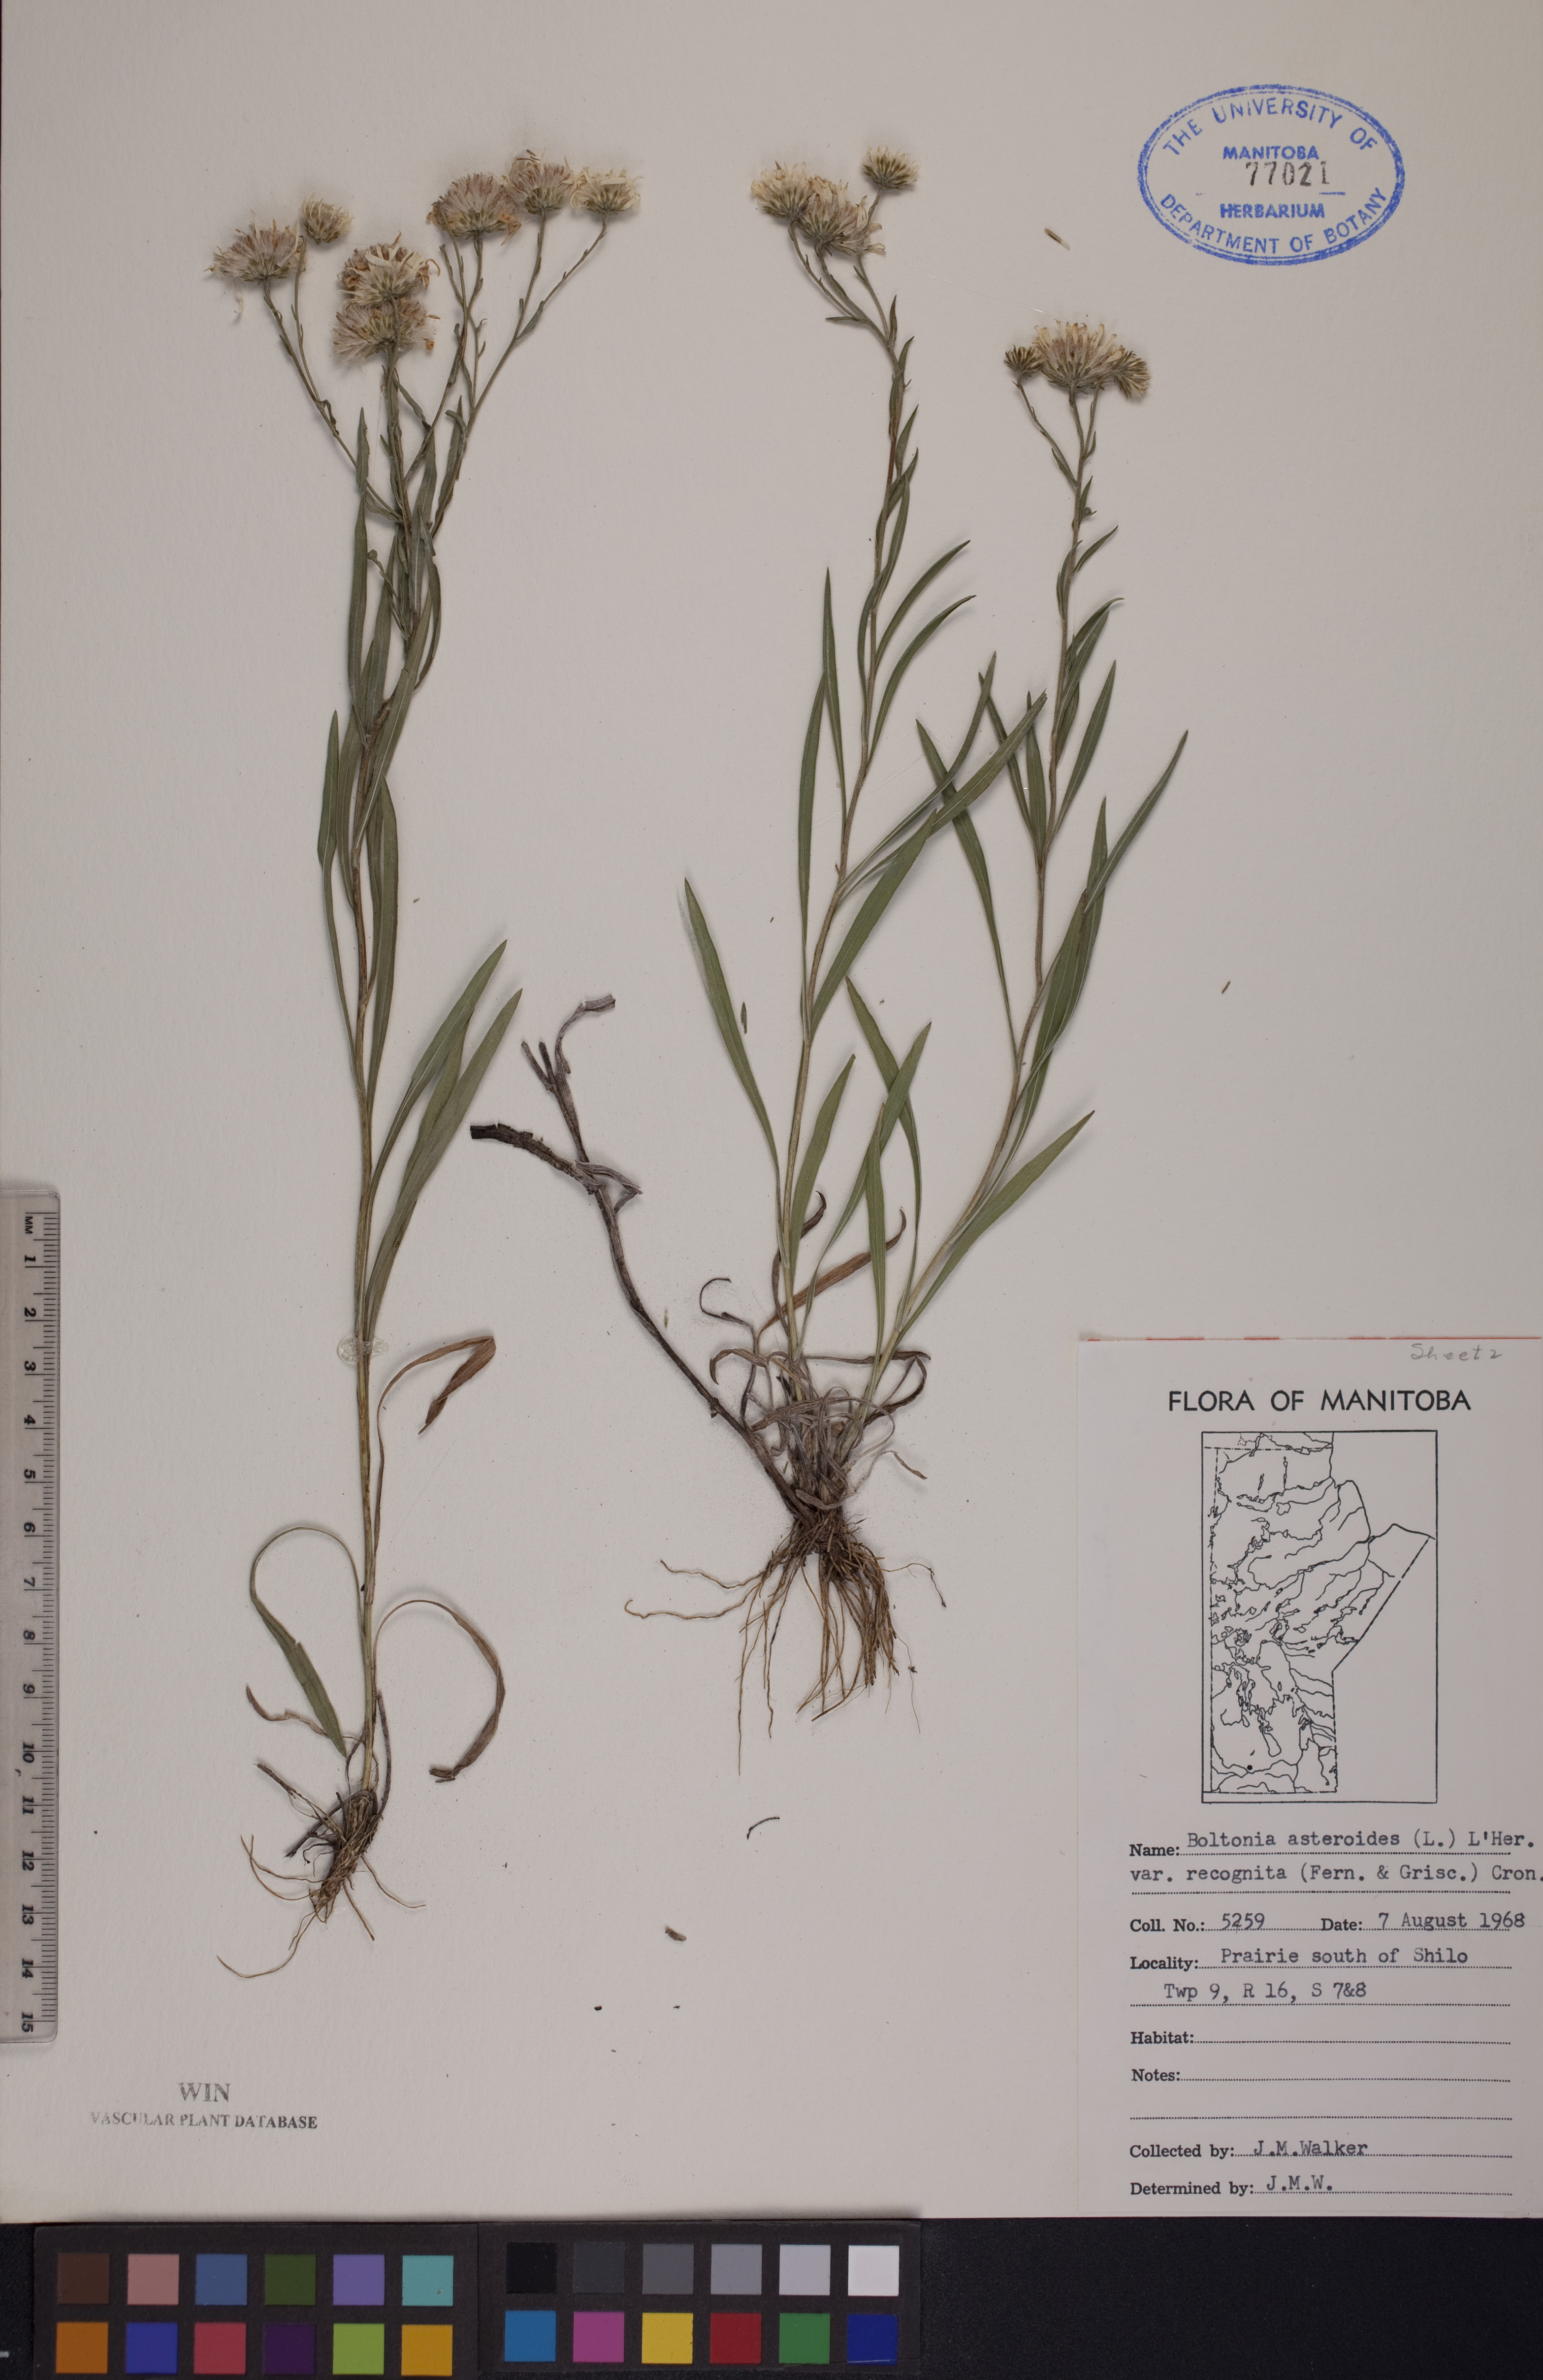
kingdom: Plantae
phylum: Tracheophyta
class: Magnoliopsida
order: Asterales
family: Asteraceae
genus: Boltonia
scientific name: Boltonia asteroides
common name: False chamomile
